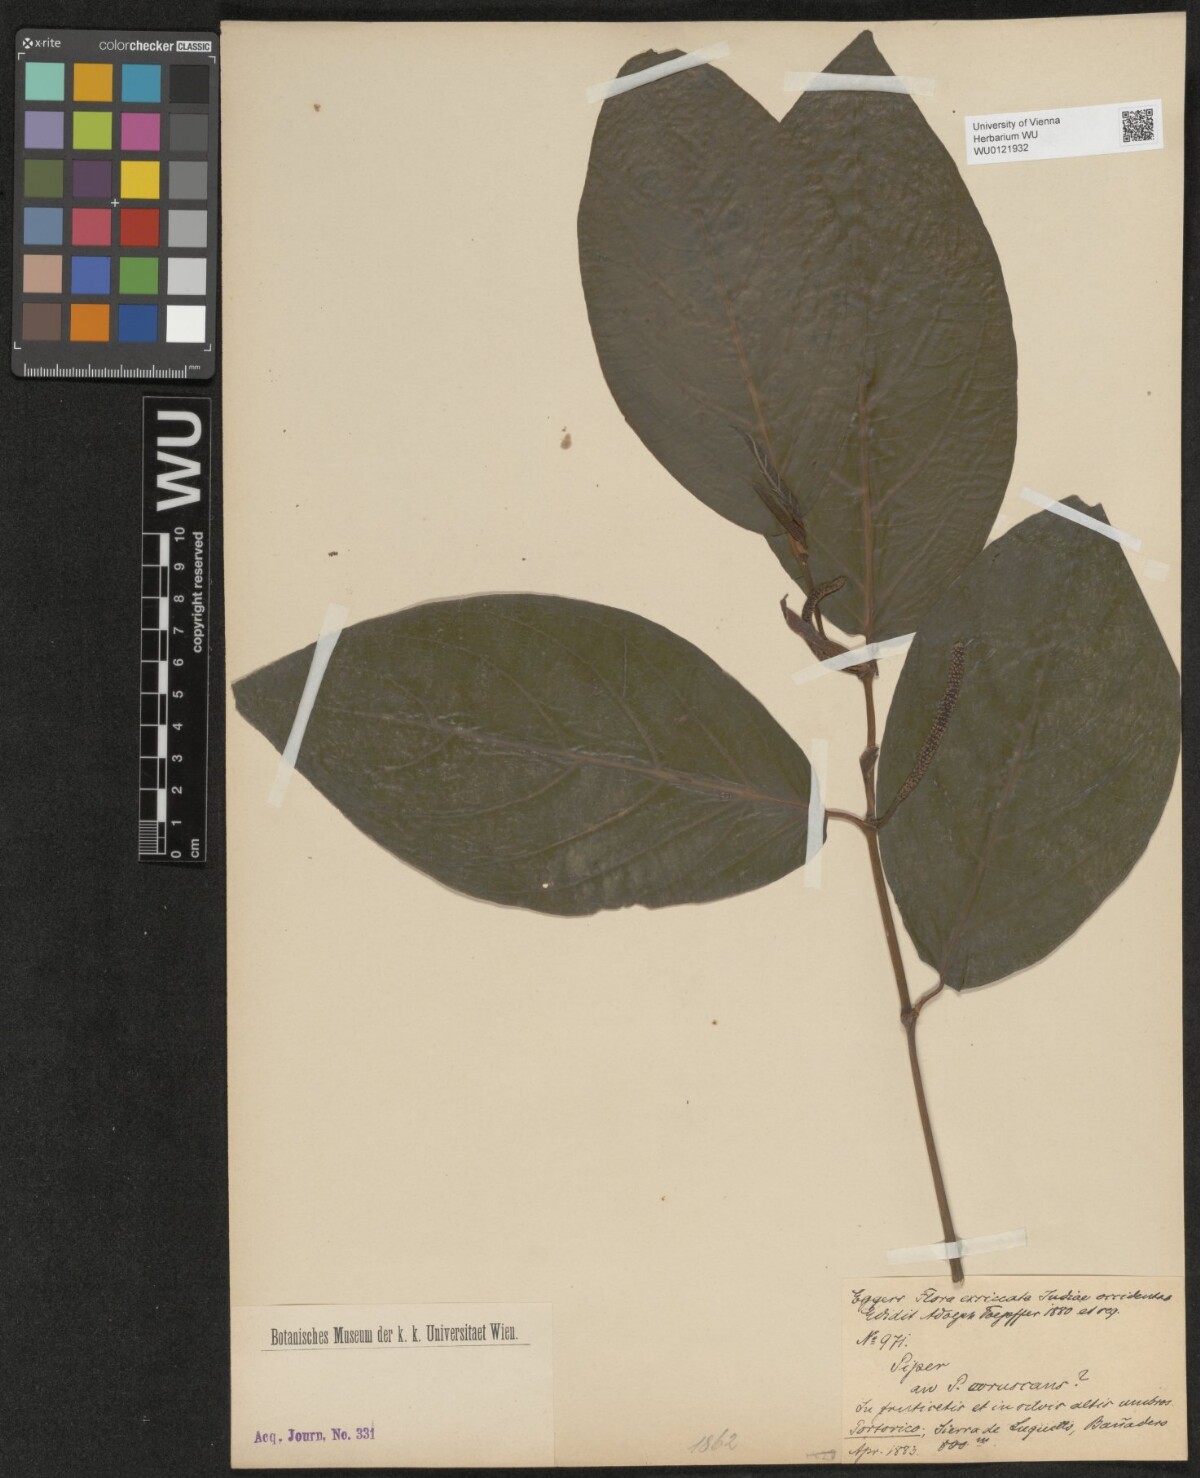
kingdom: Plantae
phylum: Tracheophyta
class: Magnoliopsida
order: Piperales
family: Piperaceae
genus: Piper
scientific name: Piper coruscans
